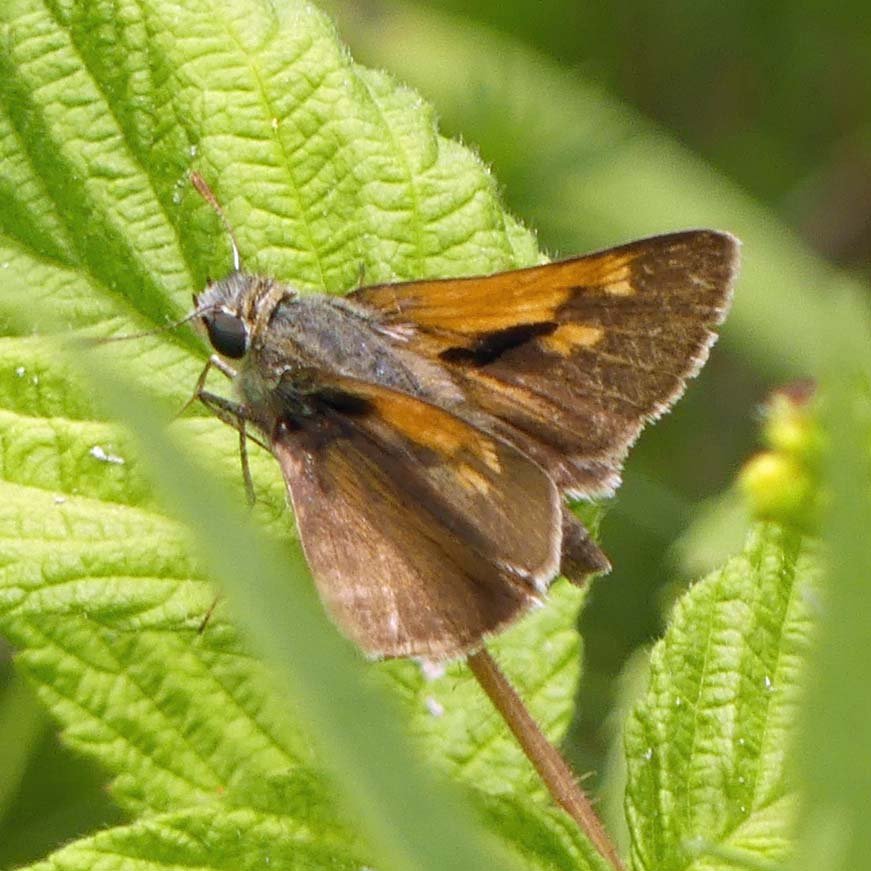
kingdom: Animalia
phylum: Arthropoda
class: Insecta
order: Lepidoptera
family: Hesperiidae
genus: Polites
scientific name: Polites themistocles
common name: Tawny-edged Skipper
